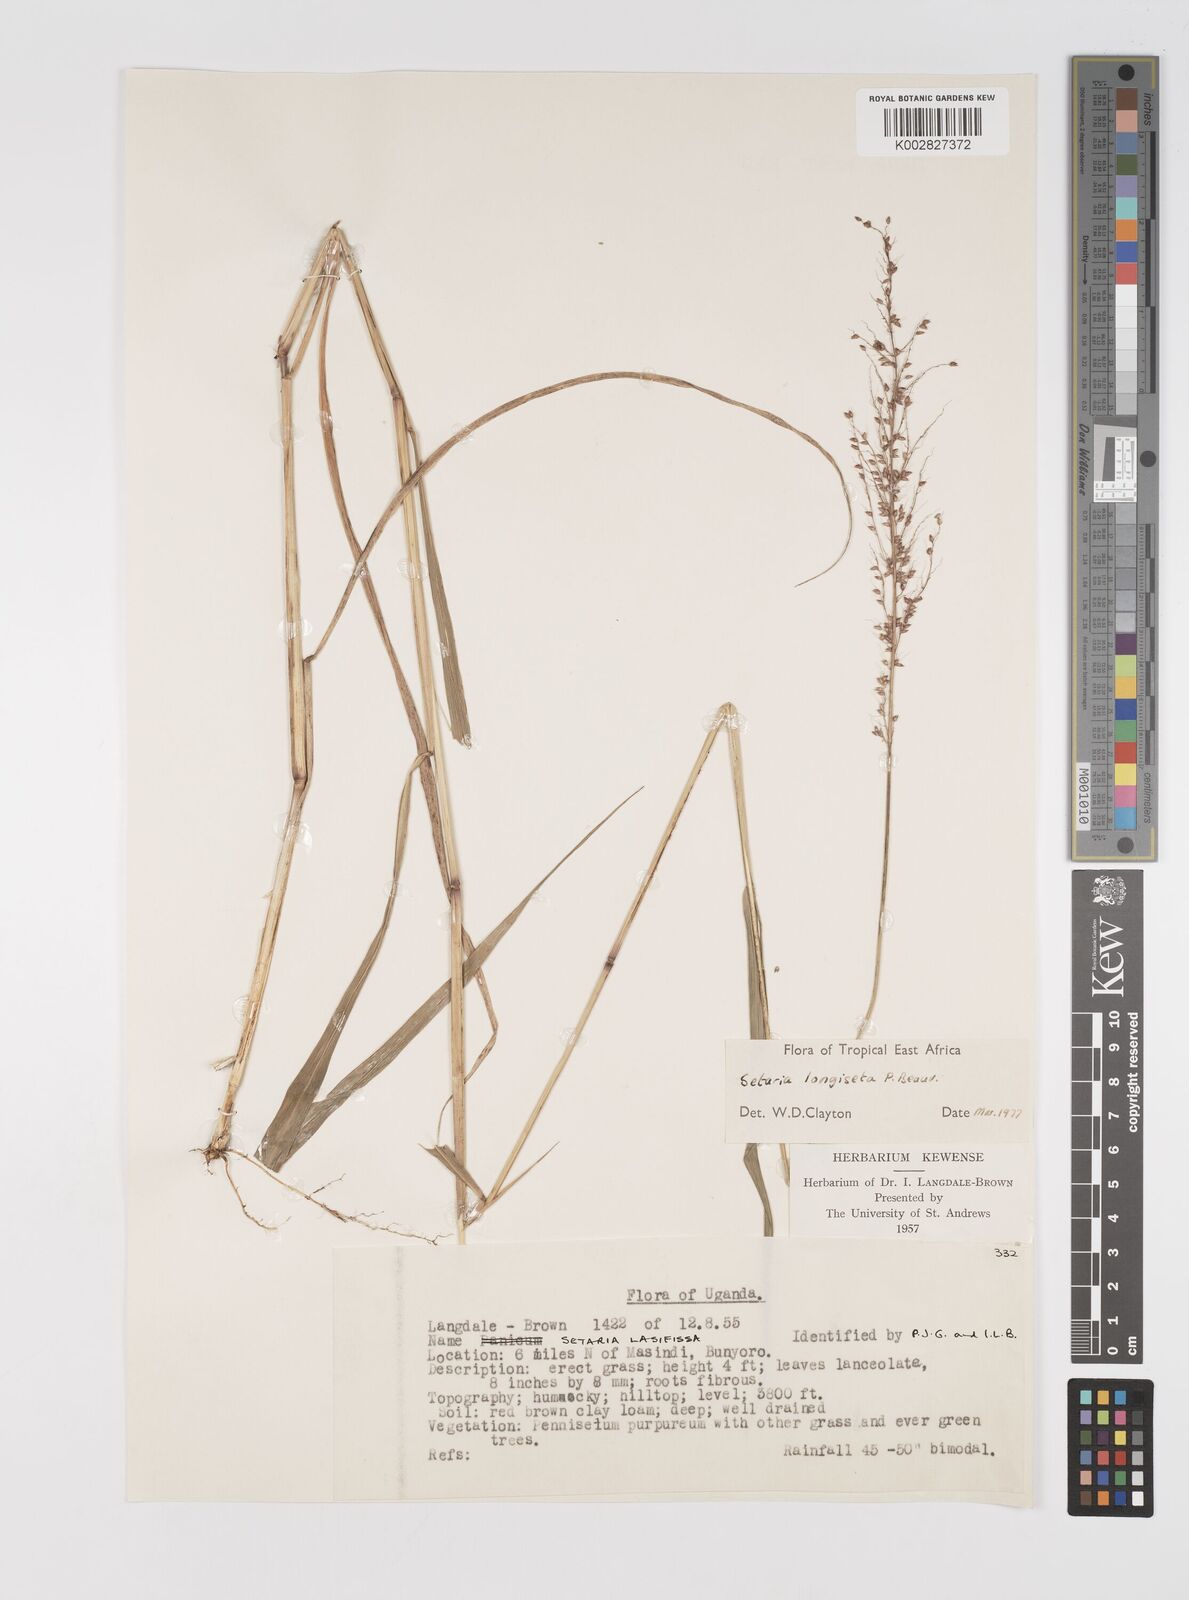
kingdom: Plantae
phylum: Tracheophyta
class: Liliopsida
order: Poales
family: Poaceae
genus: Setaria
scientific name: Setaria longiseta
